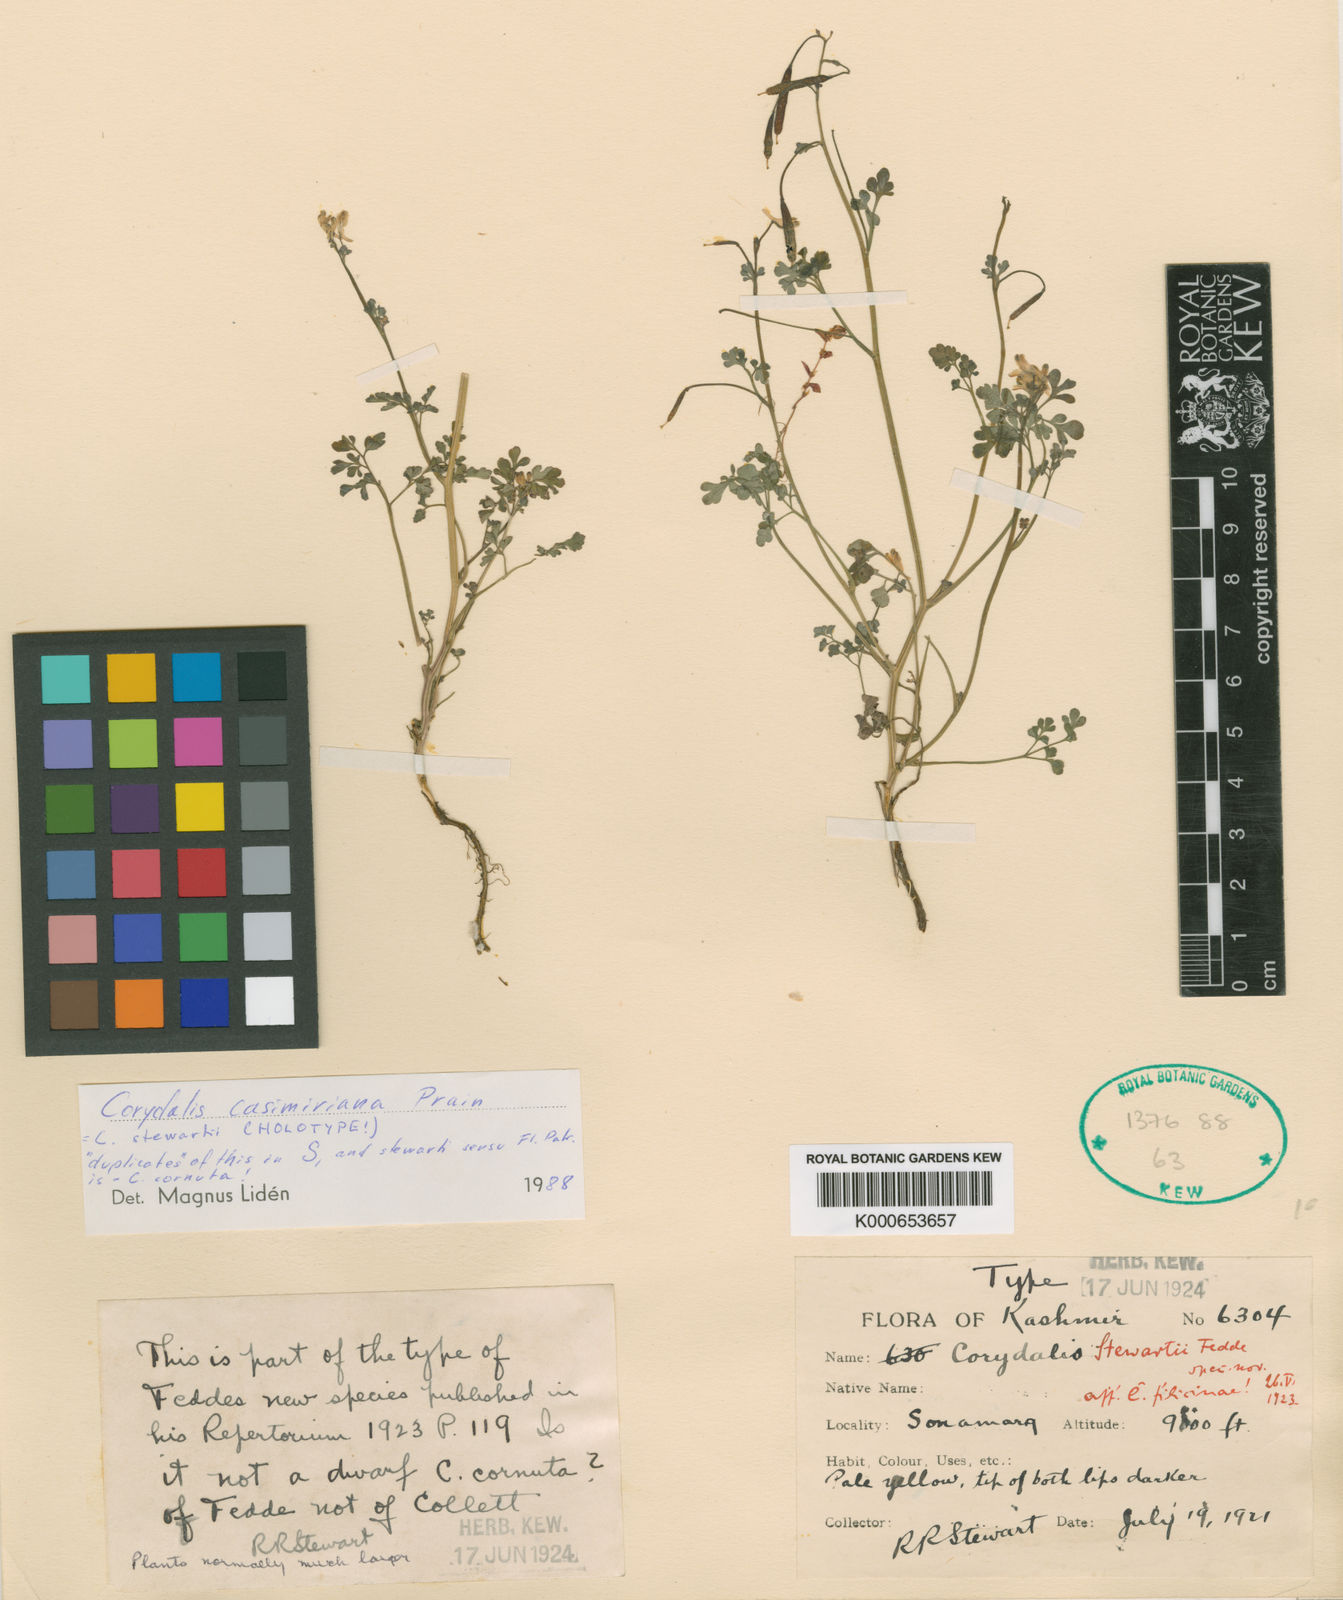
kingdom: Plantae
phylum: Tracheophyta
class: Magnoliopsida
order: Ranunculales
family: Papaveraceae
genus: Corydalis
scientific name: Corydalis casimiriana
